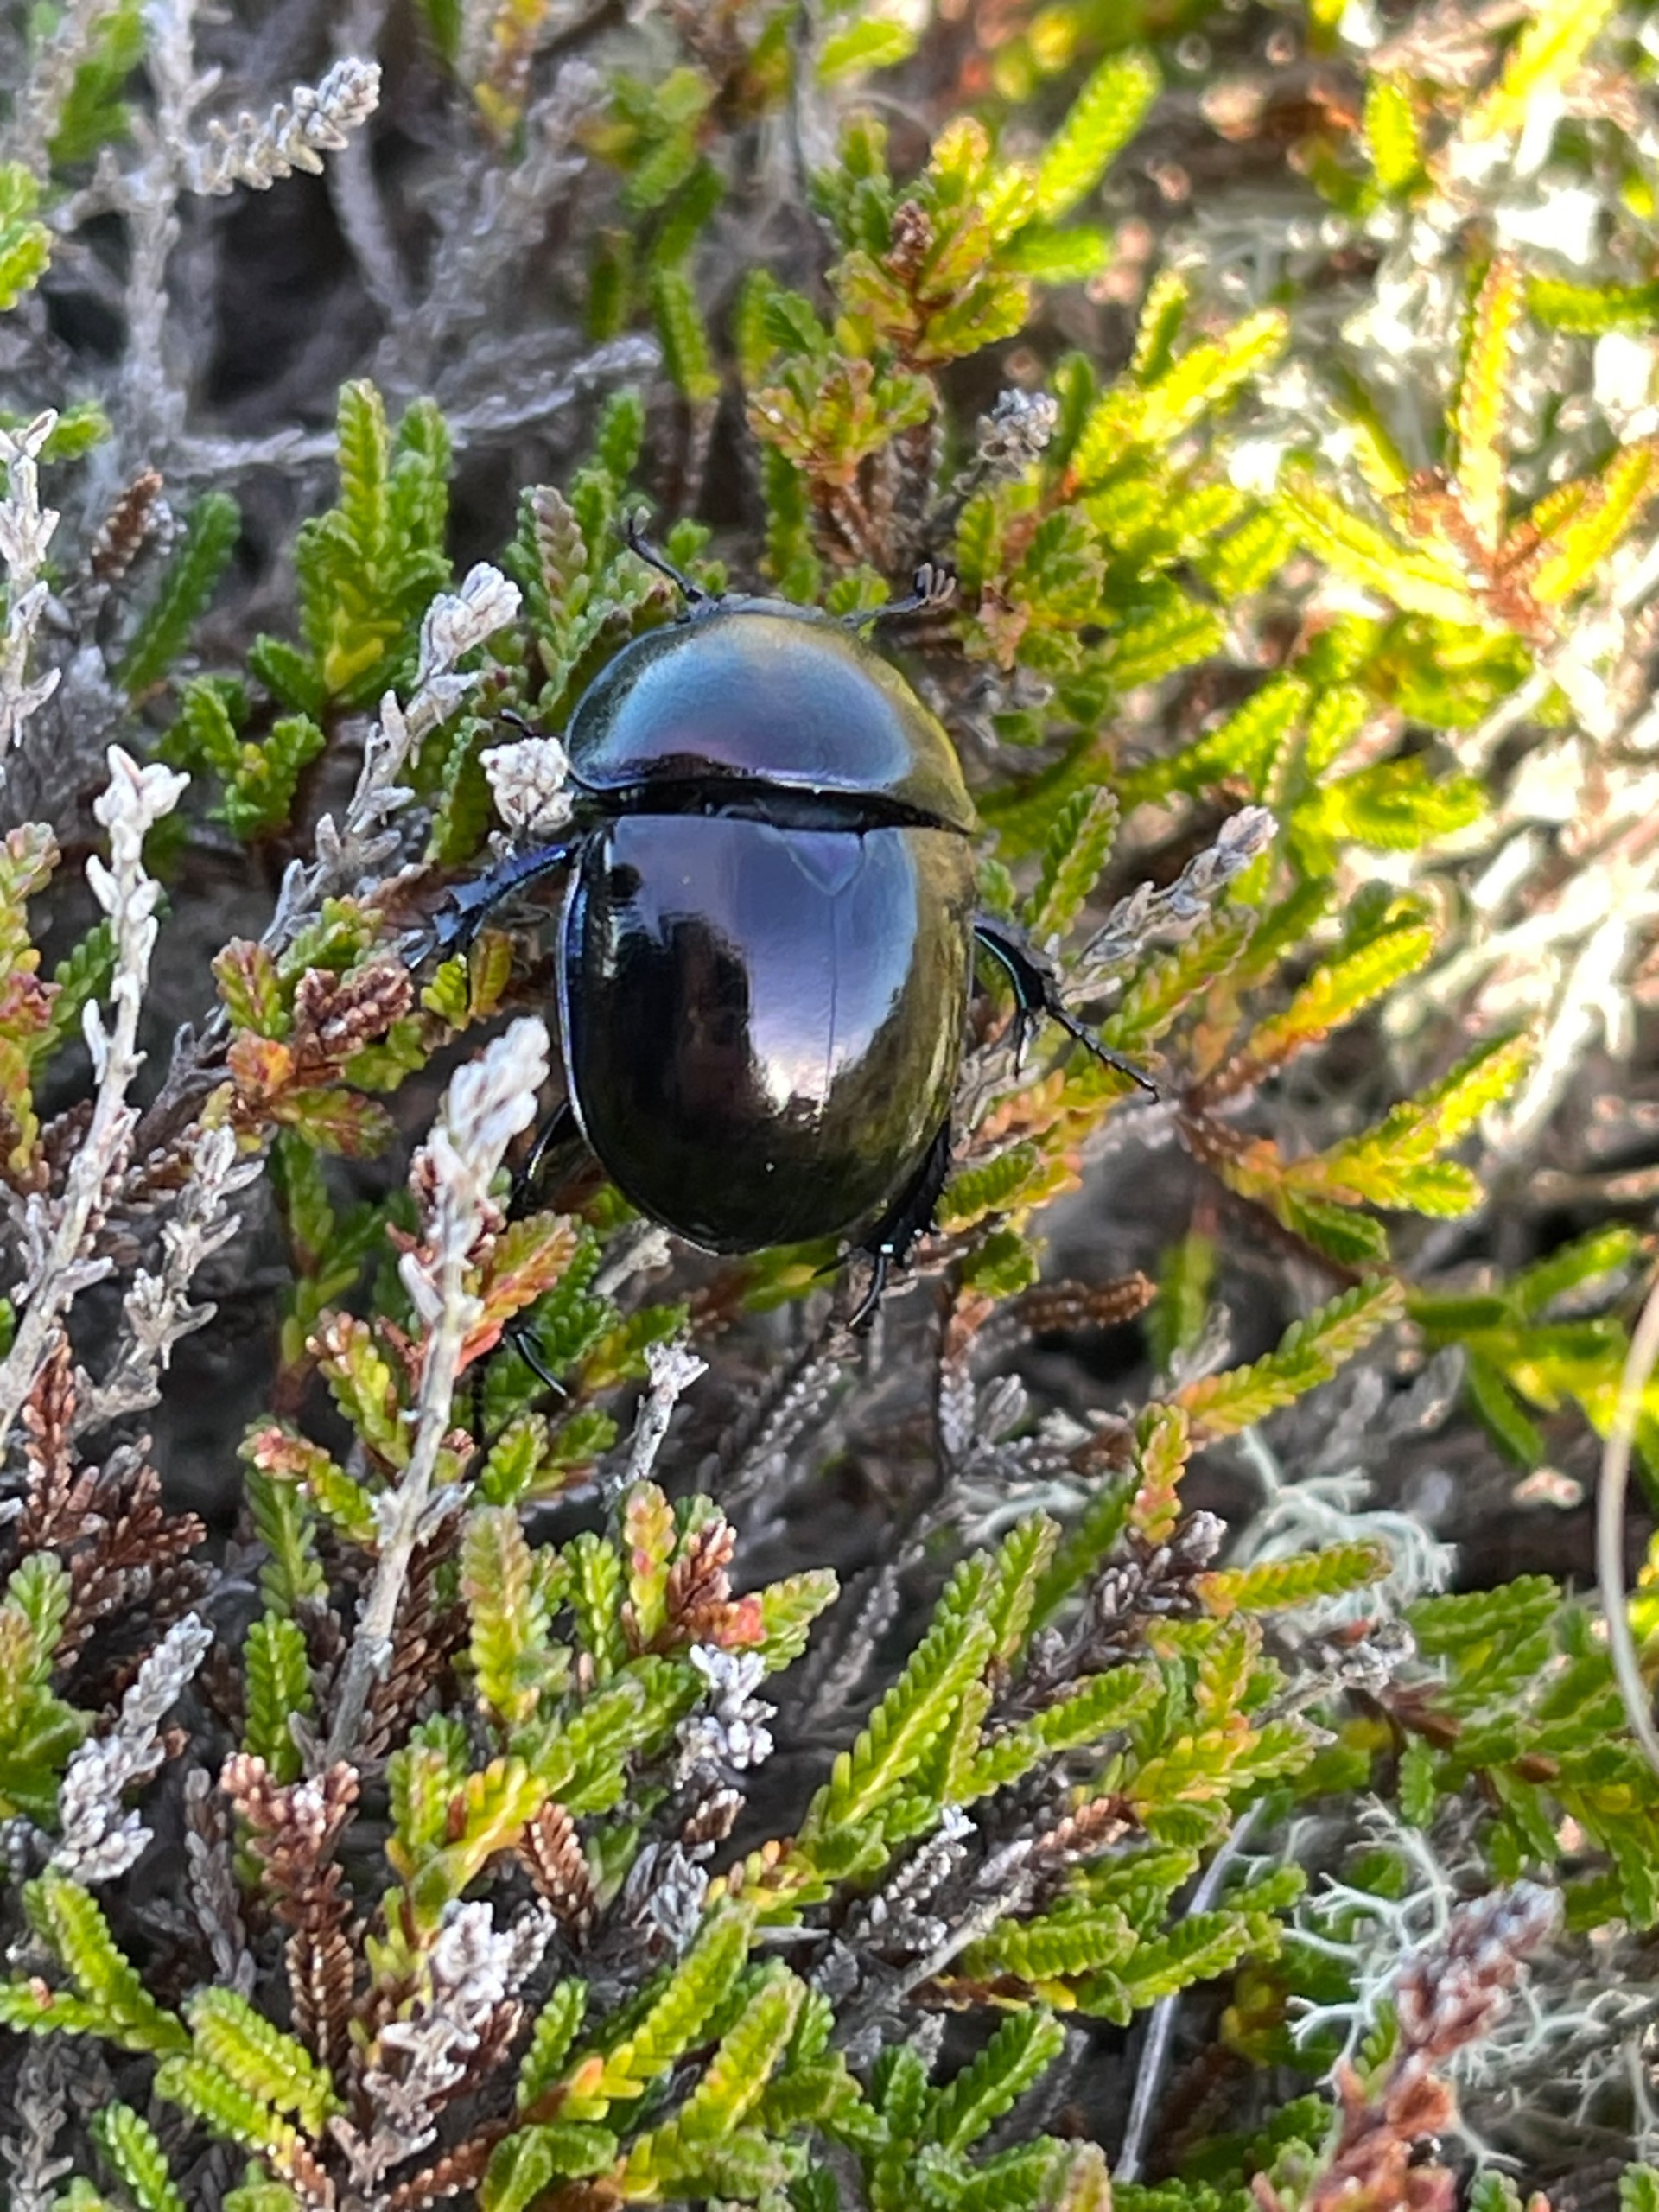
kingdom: Animalia
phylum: Arthropoda
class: Insecta
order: Coleoptera
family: Geotrupidae
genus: Trypocopris
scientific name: Trypocopris vernalis
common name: Glat skarnbasse
